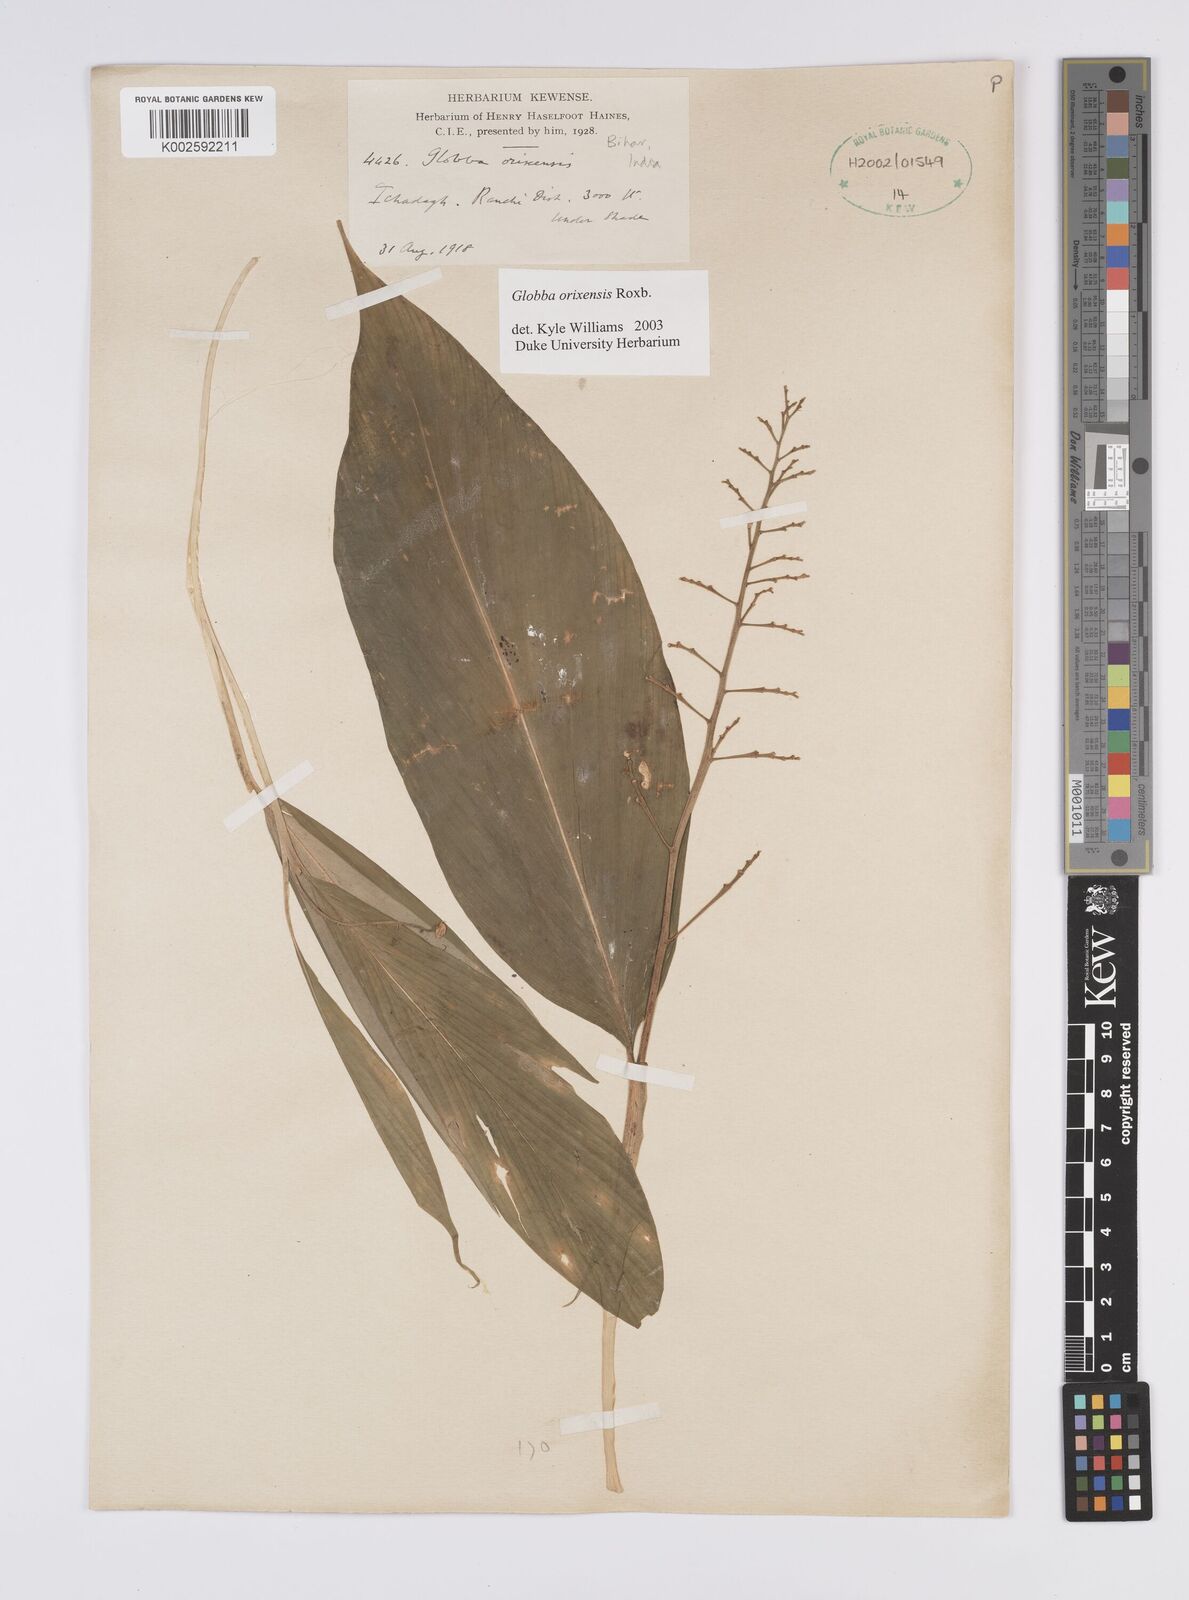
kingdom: Plantae
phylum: Tracheophyta
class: Liliopsida
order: Zingiberales
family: Zingiberaceae
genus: Globba
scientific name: Globba orixensis
